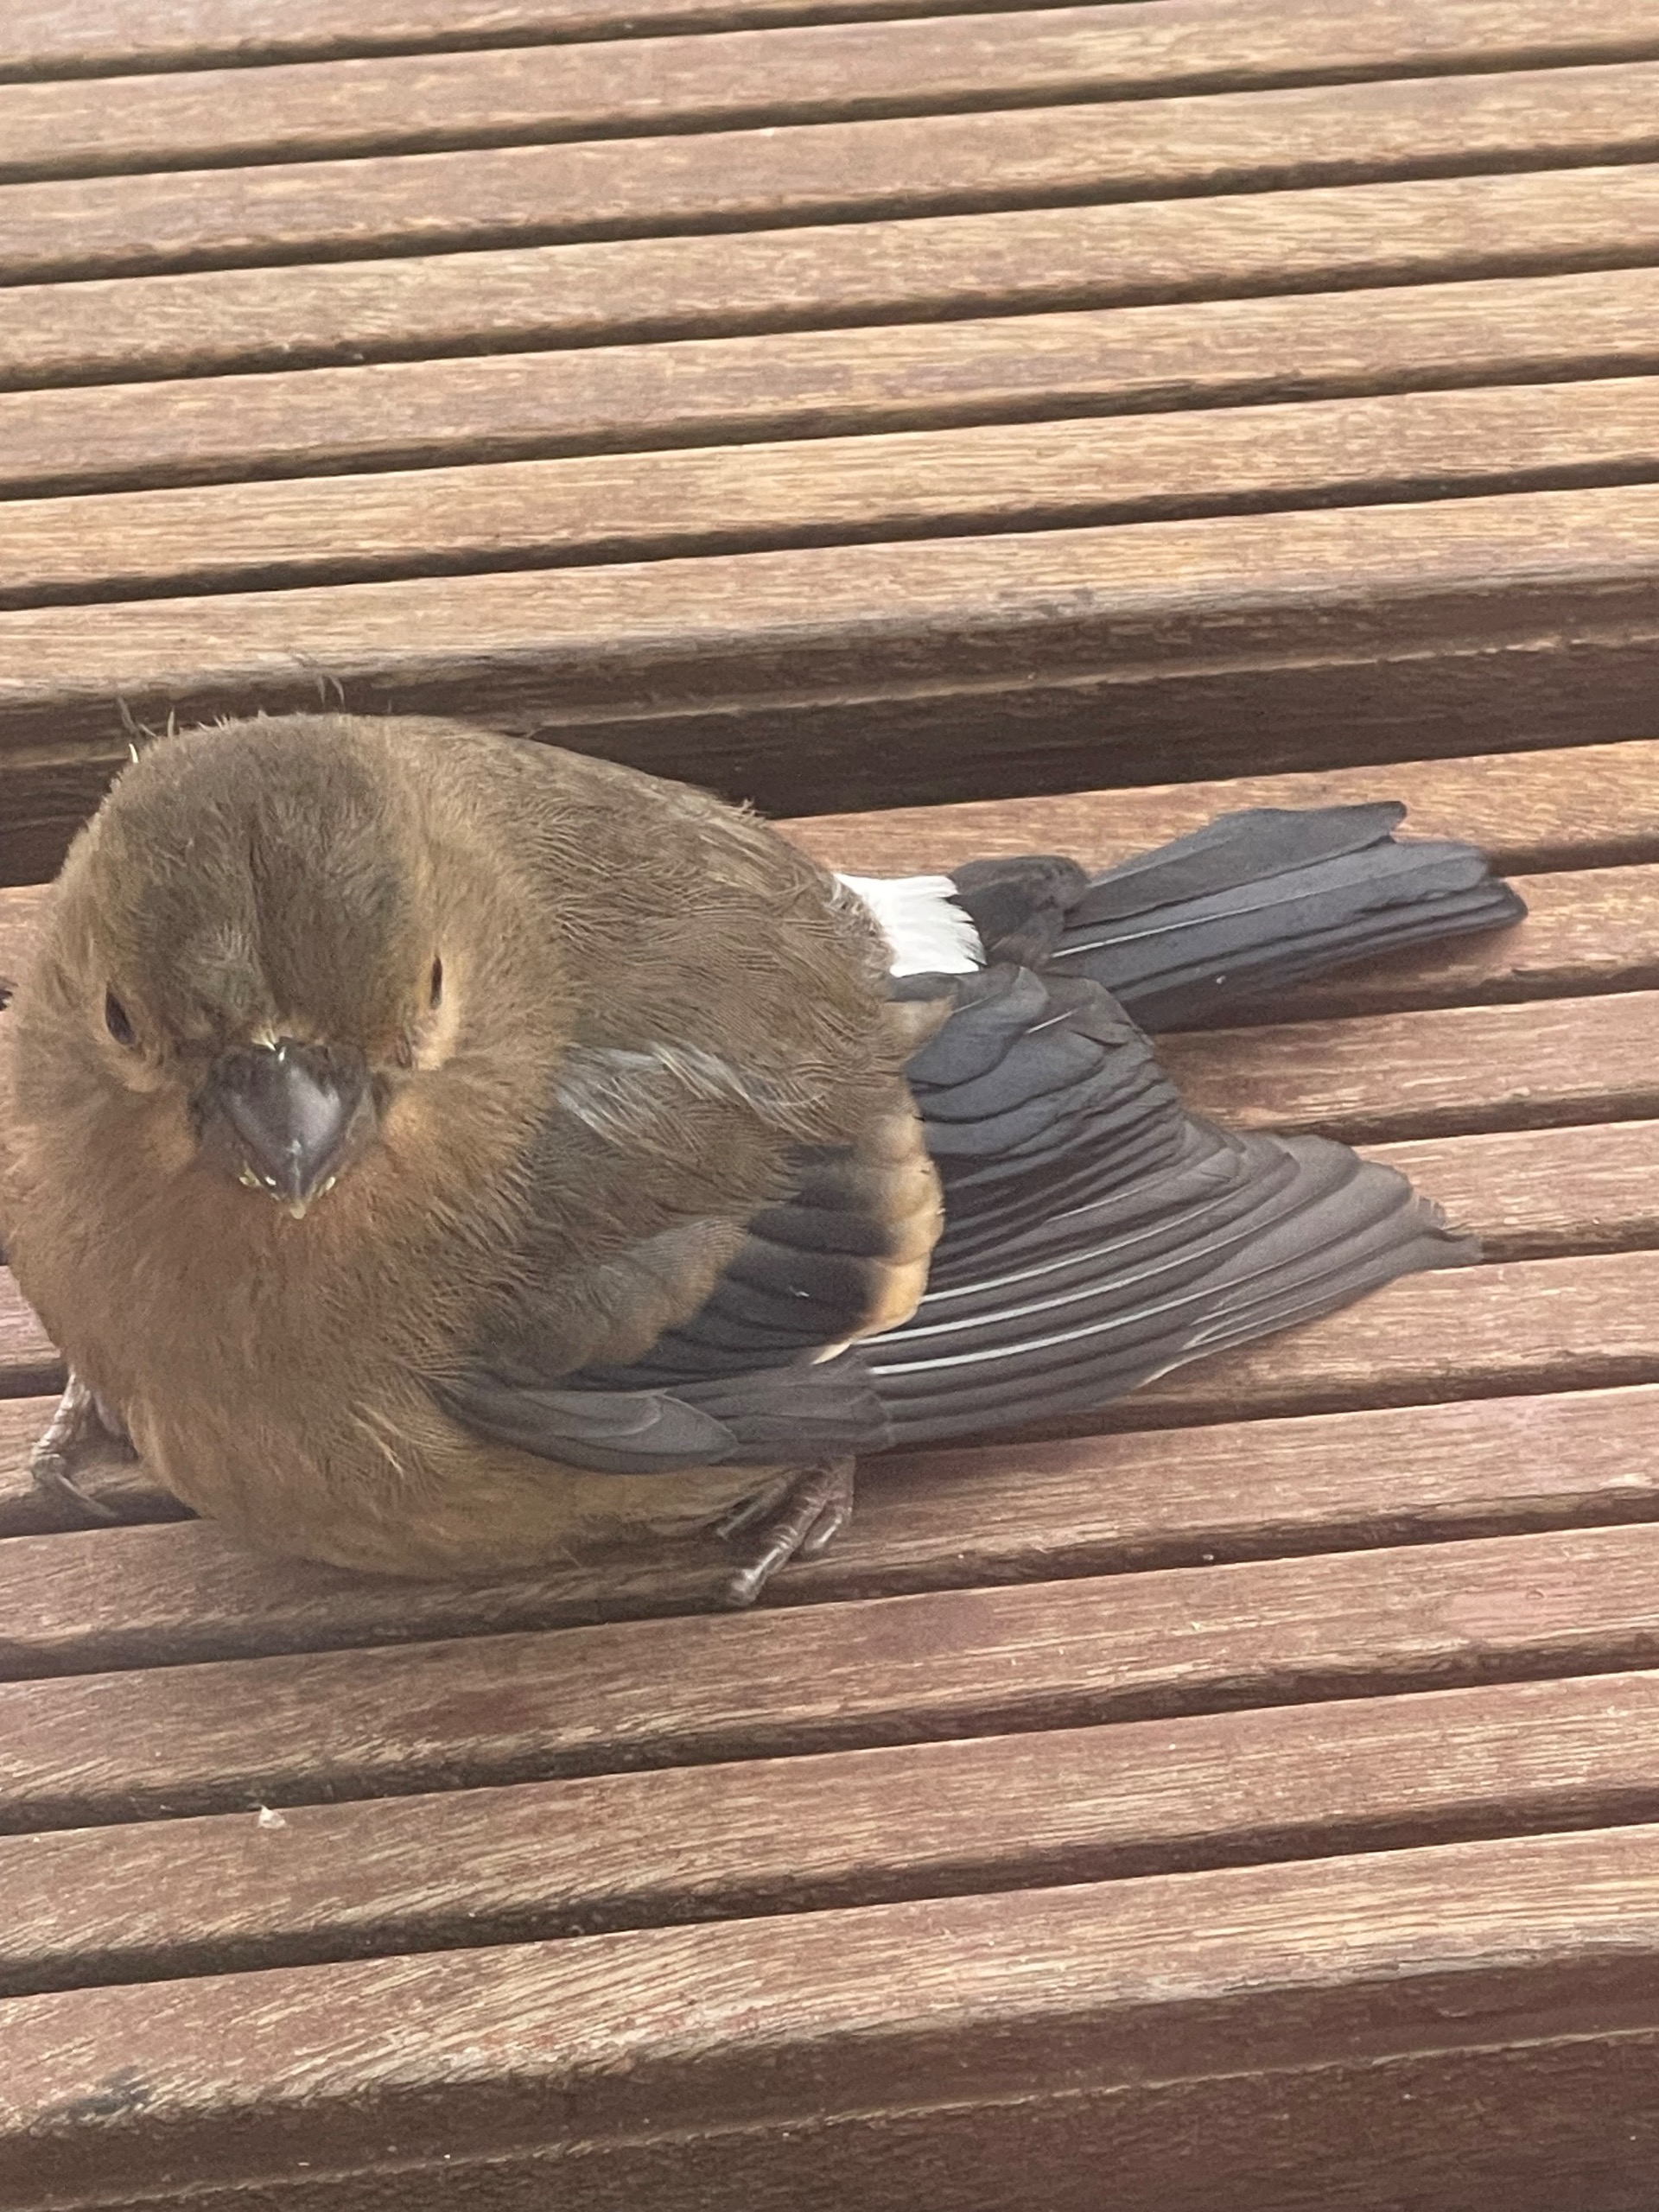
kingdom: Animalia
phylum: Chordata
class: Aves
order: Passeriformes
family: Fringillidae
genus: Pyrrhula
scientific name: Pyrrhula pyrrhula
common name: Dompap
